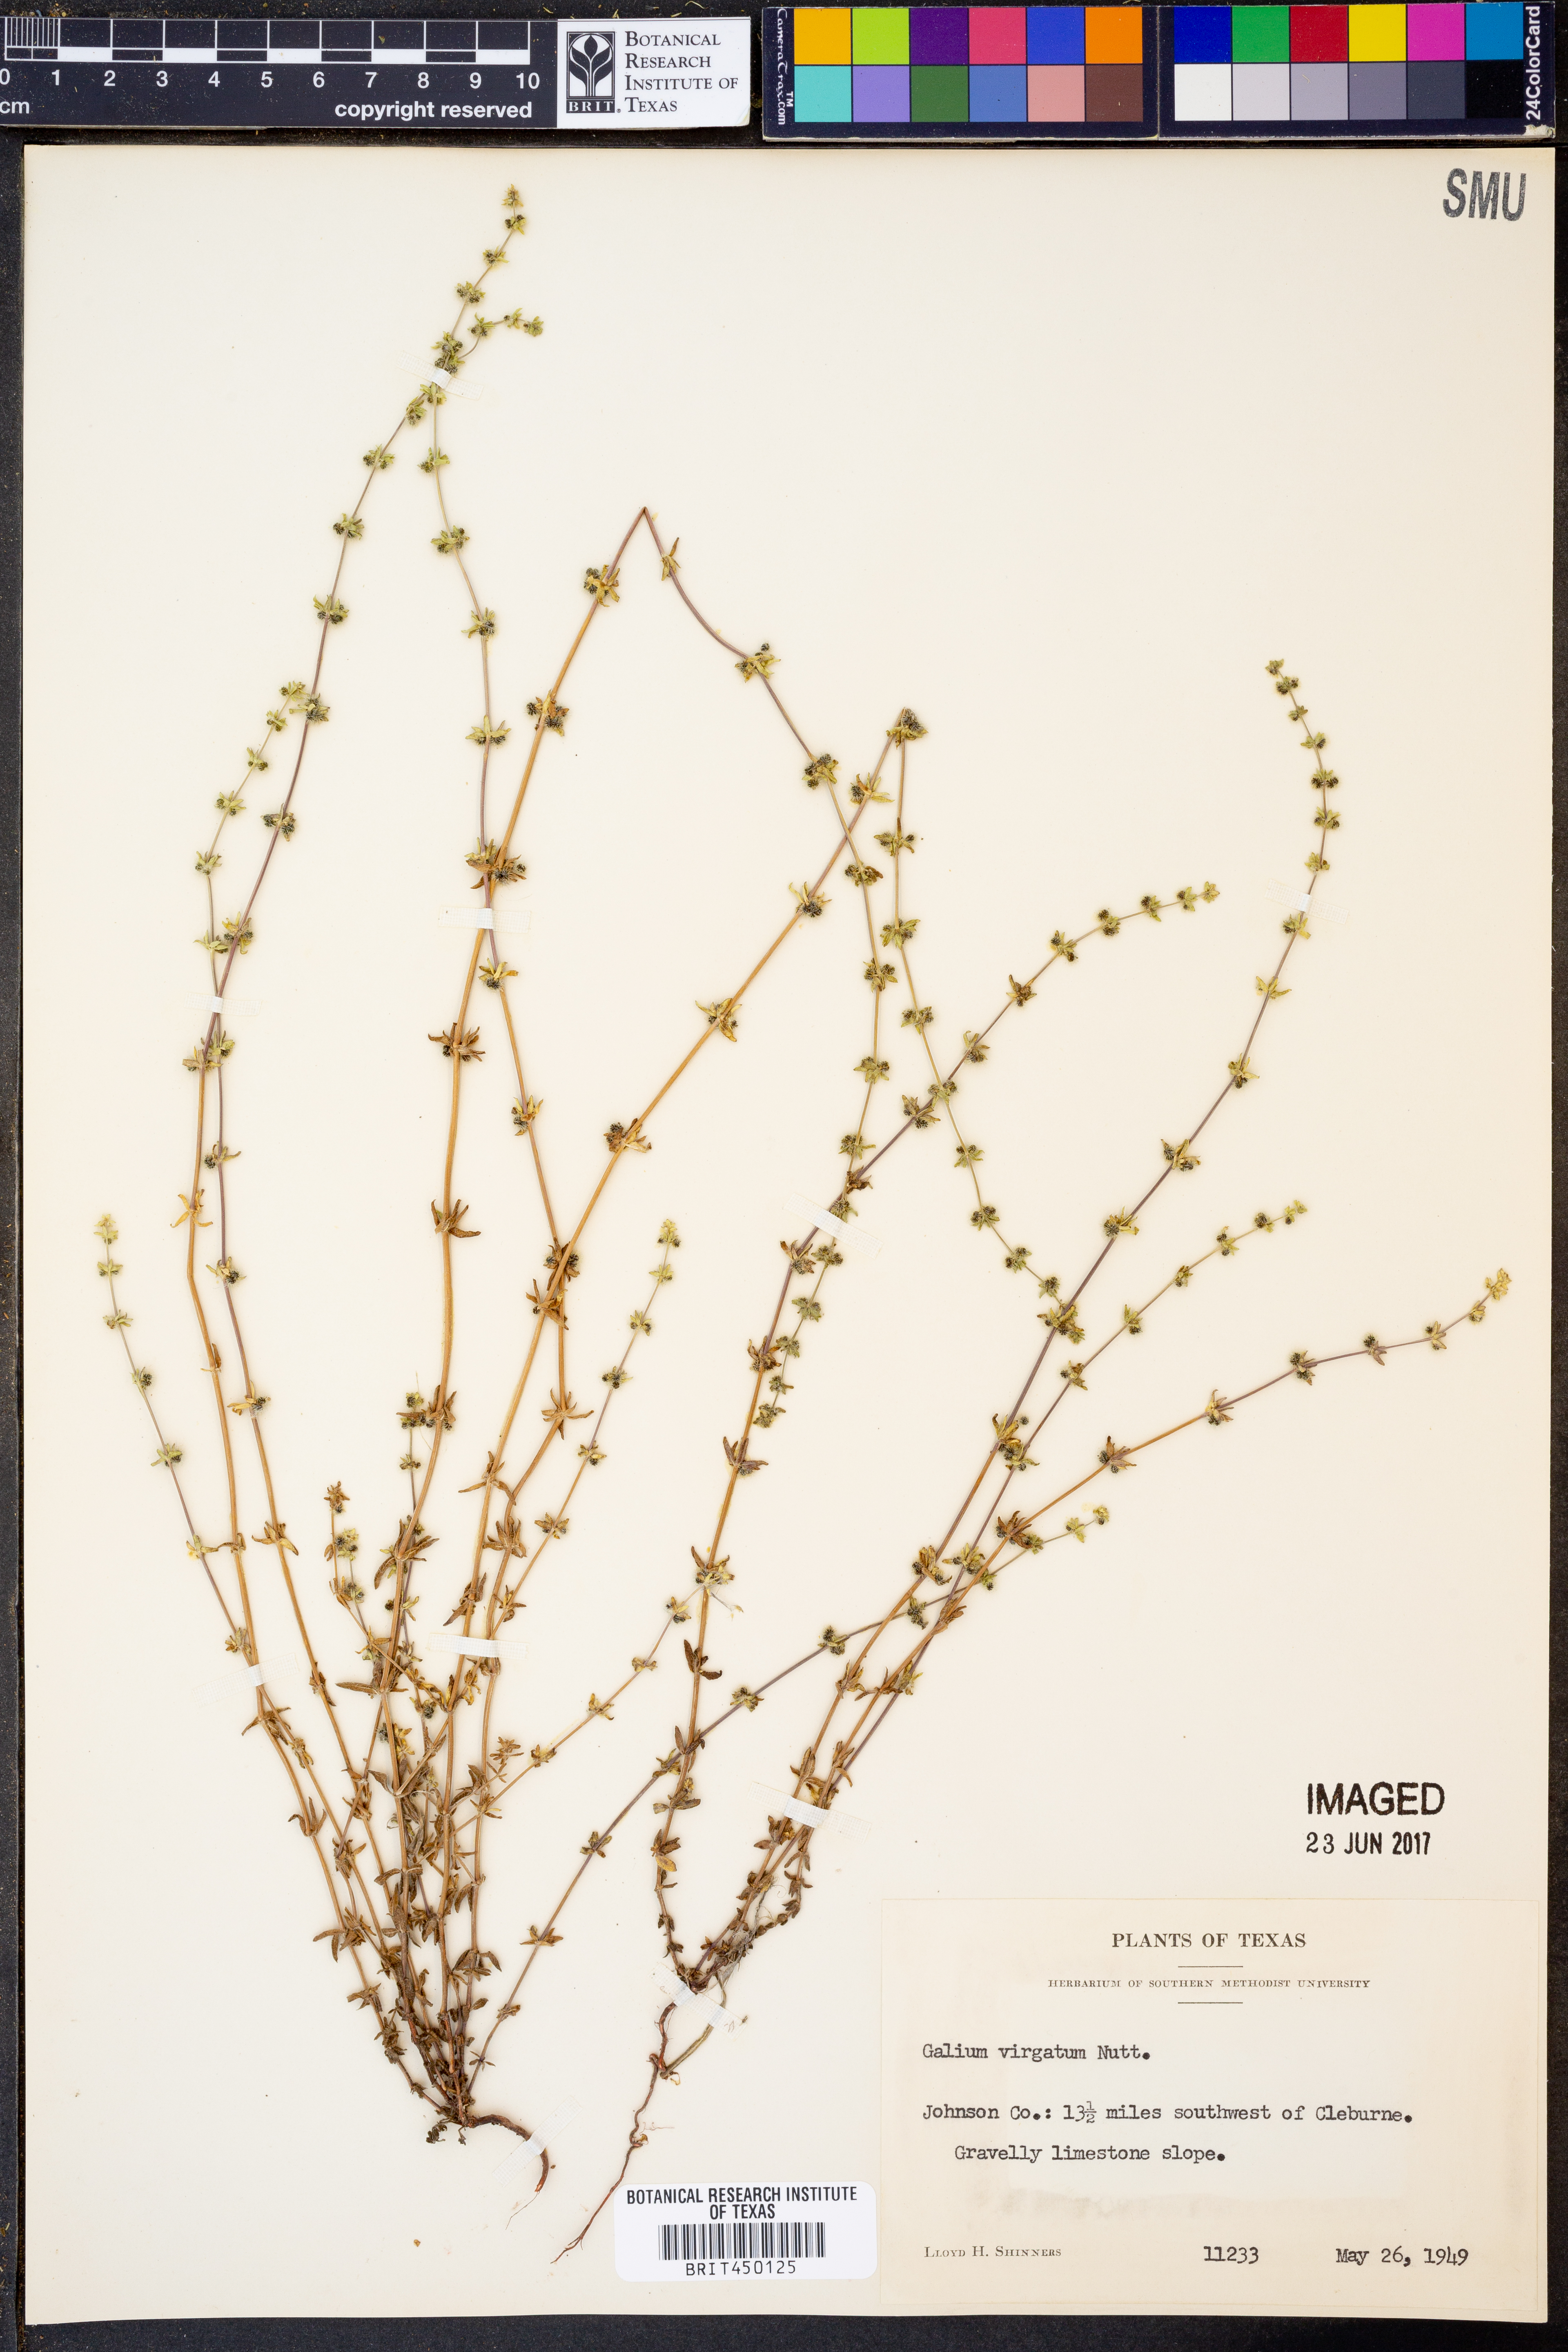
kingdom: Plantae
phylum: Tracheophyta
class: Magnoliopsida
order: Gentianales
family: Rubiaceae
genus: Galium
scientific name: Galium virgatum
